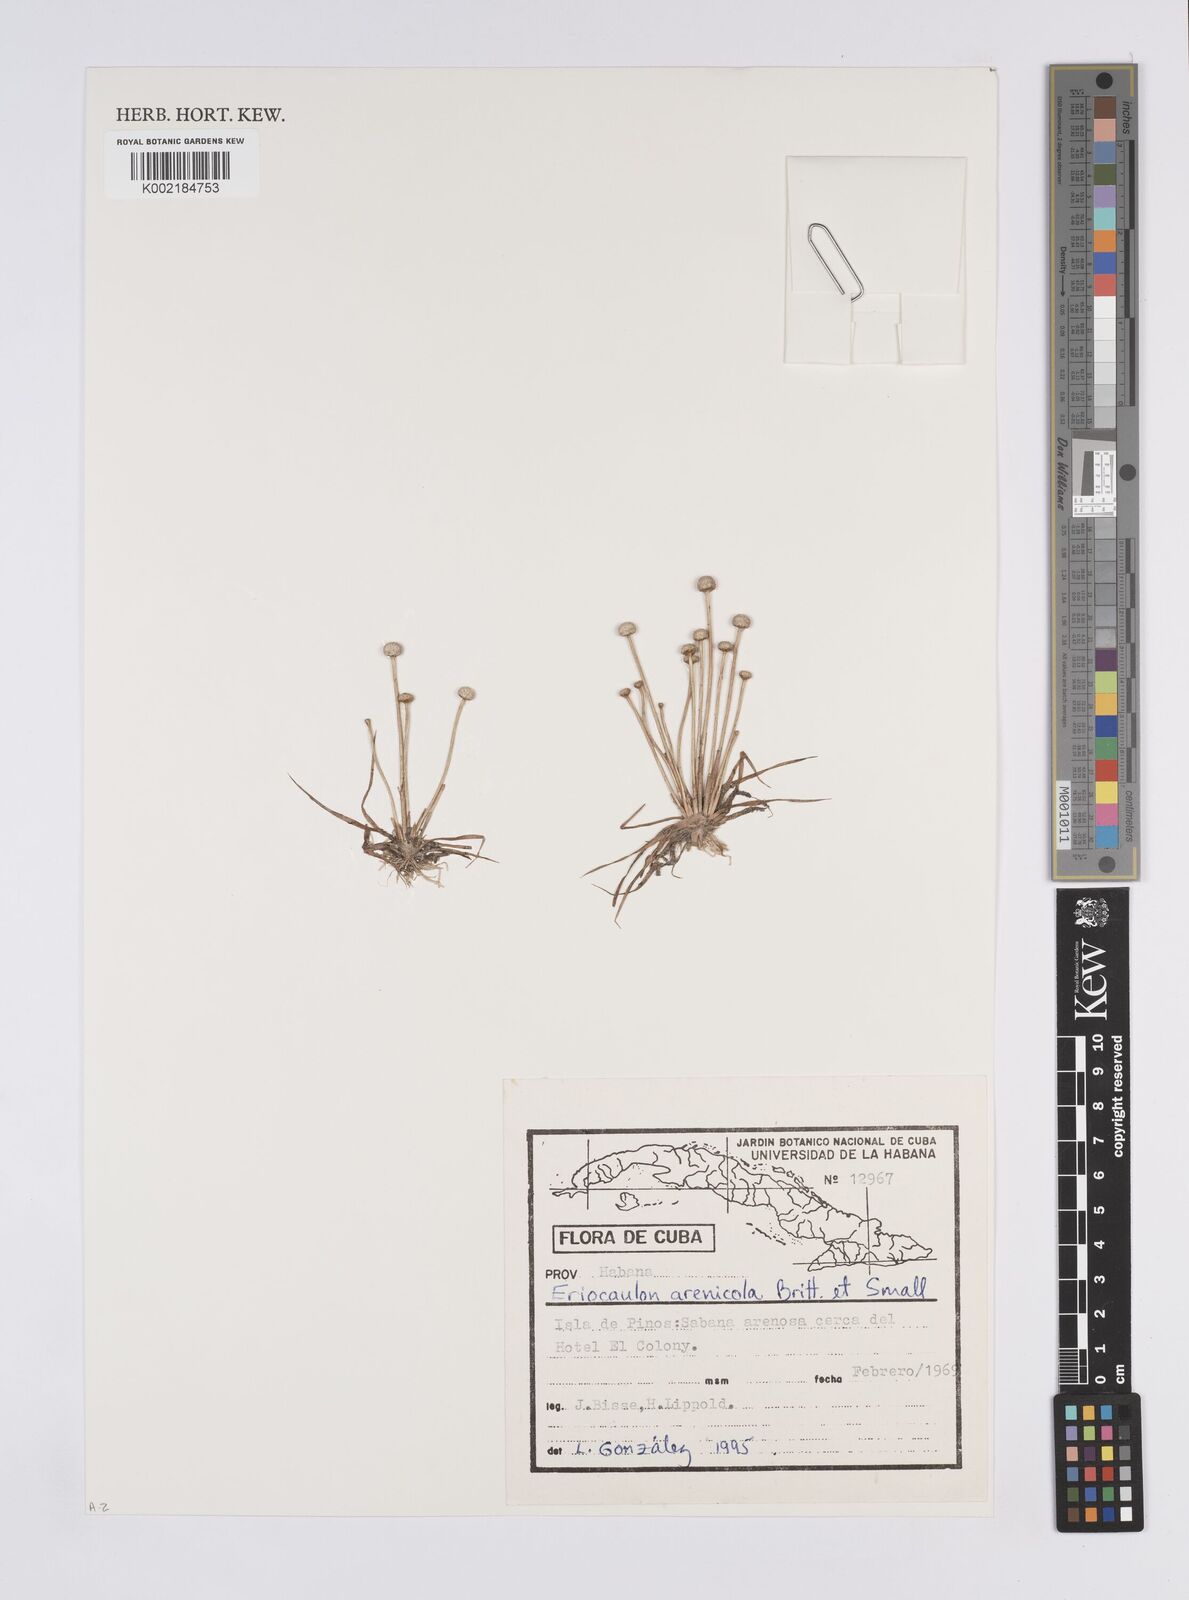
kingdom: Plantae
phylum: Tracheophyta
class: Liliopsida
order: Poales
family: Eriocaulaceae
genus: Eriocaulon
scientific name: Eriocaulon arenicola
